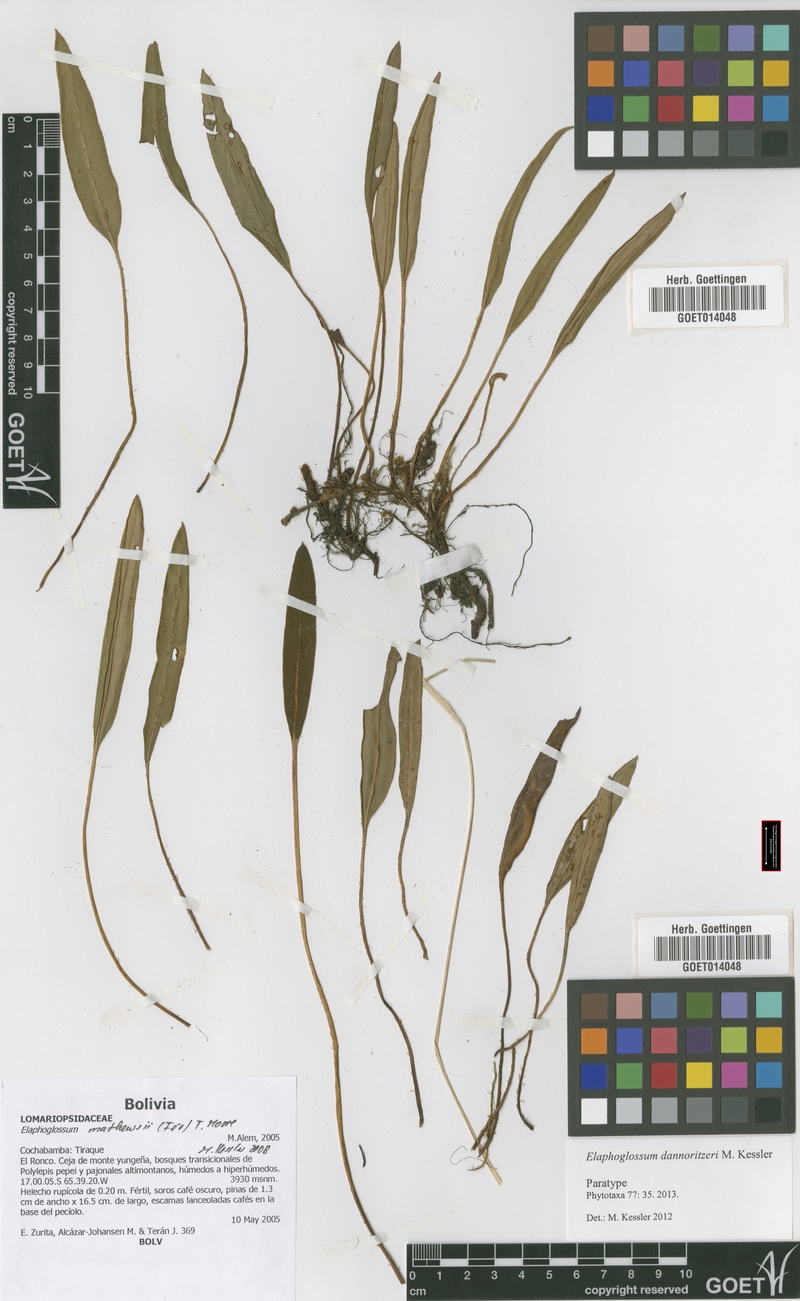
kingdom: Plantae
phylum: Tracheophyta
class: Polypodiopsida
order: Polypodiales
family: Dryopteridaceae
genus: Elaphoglossum
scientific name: Elaphoglossum dannoritzeri
